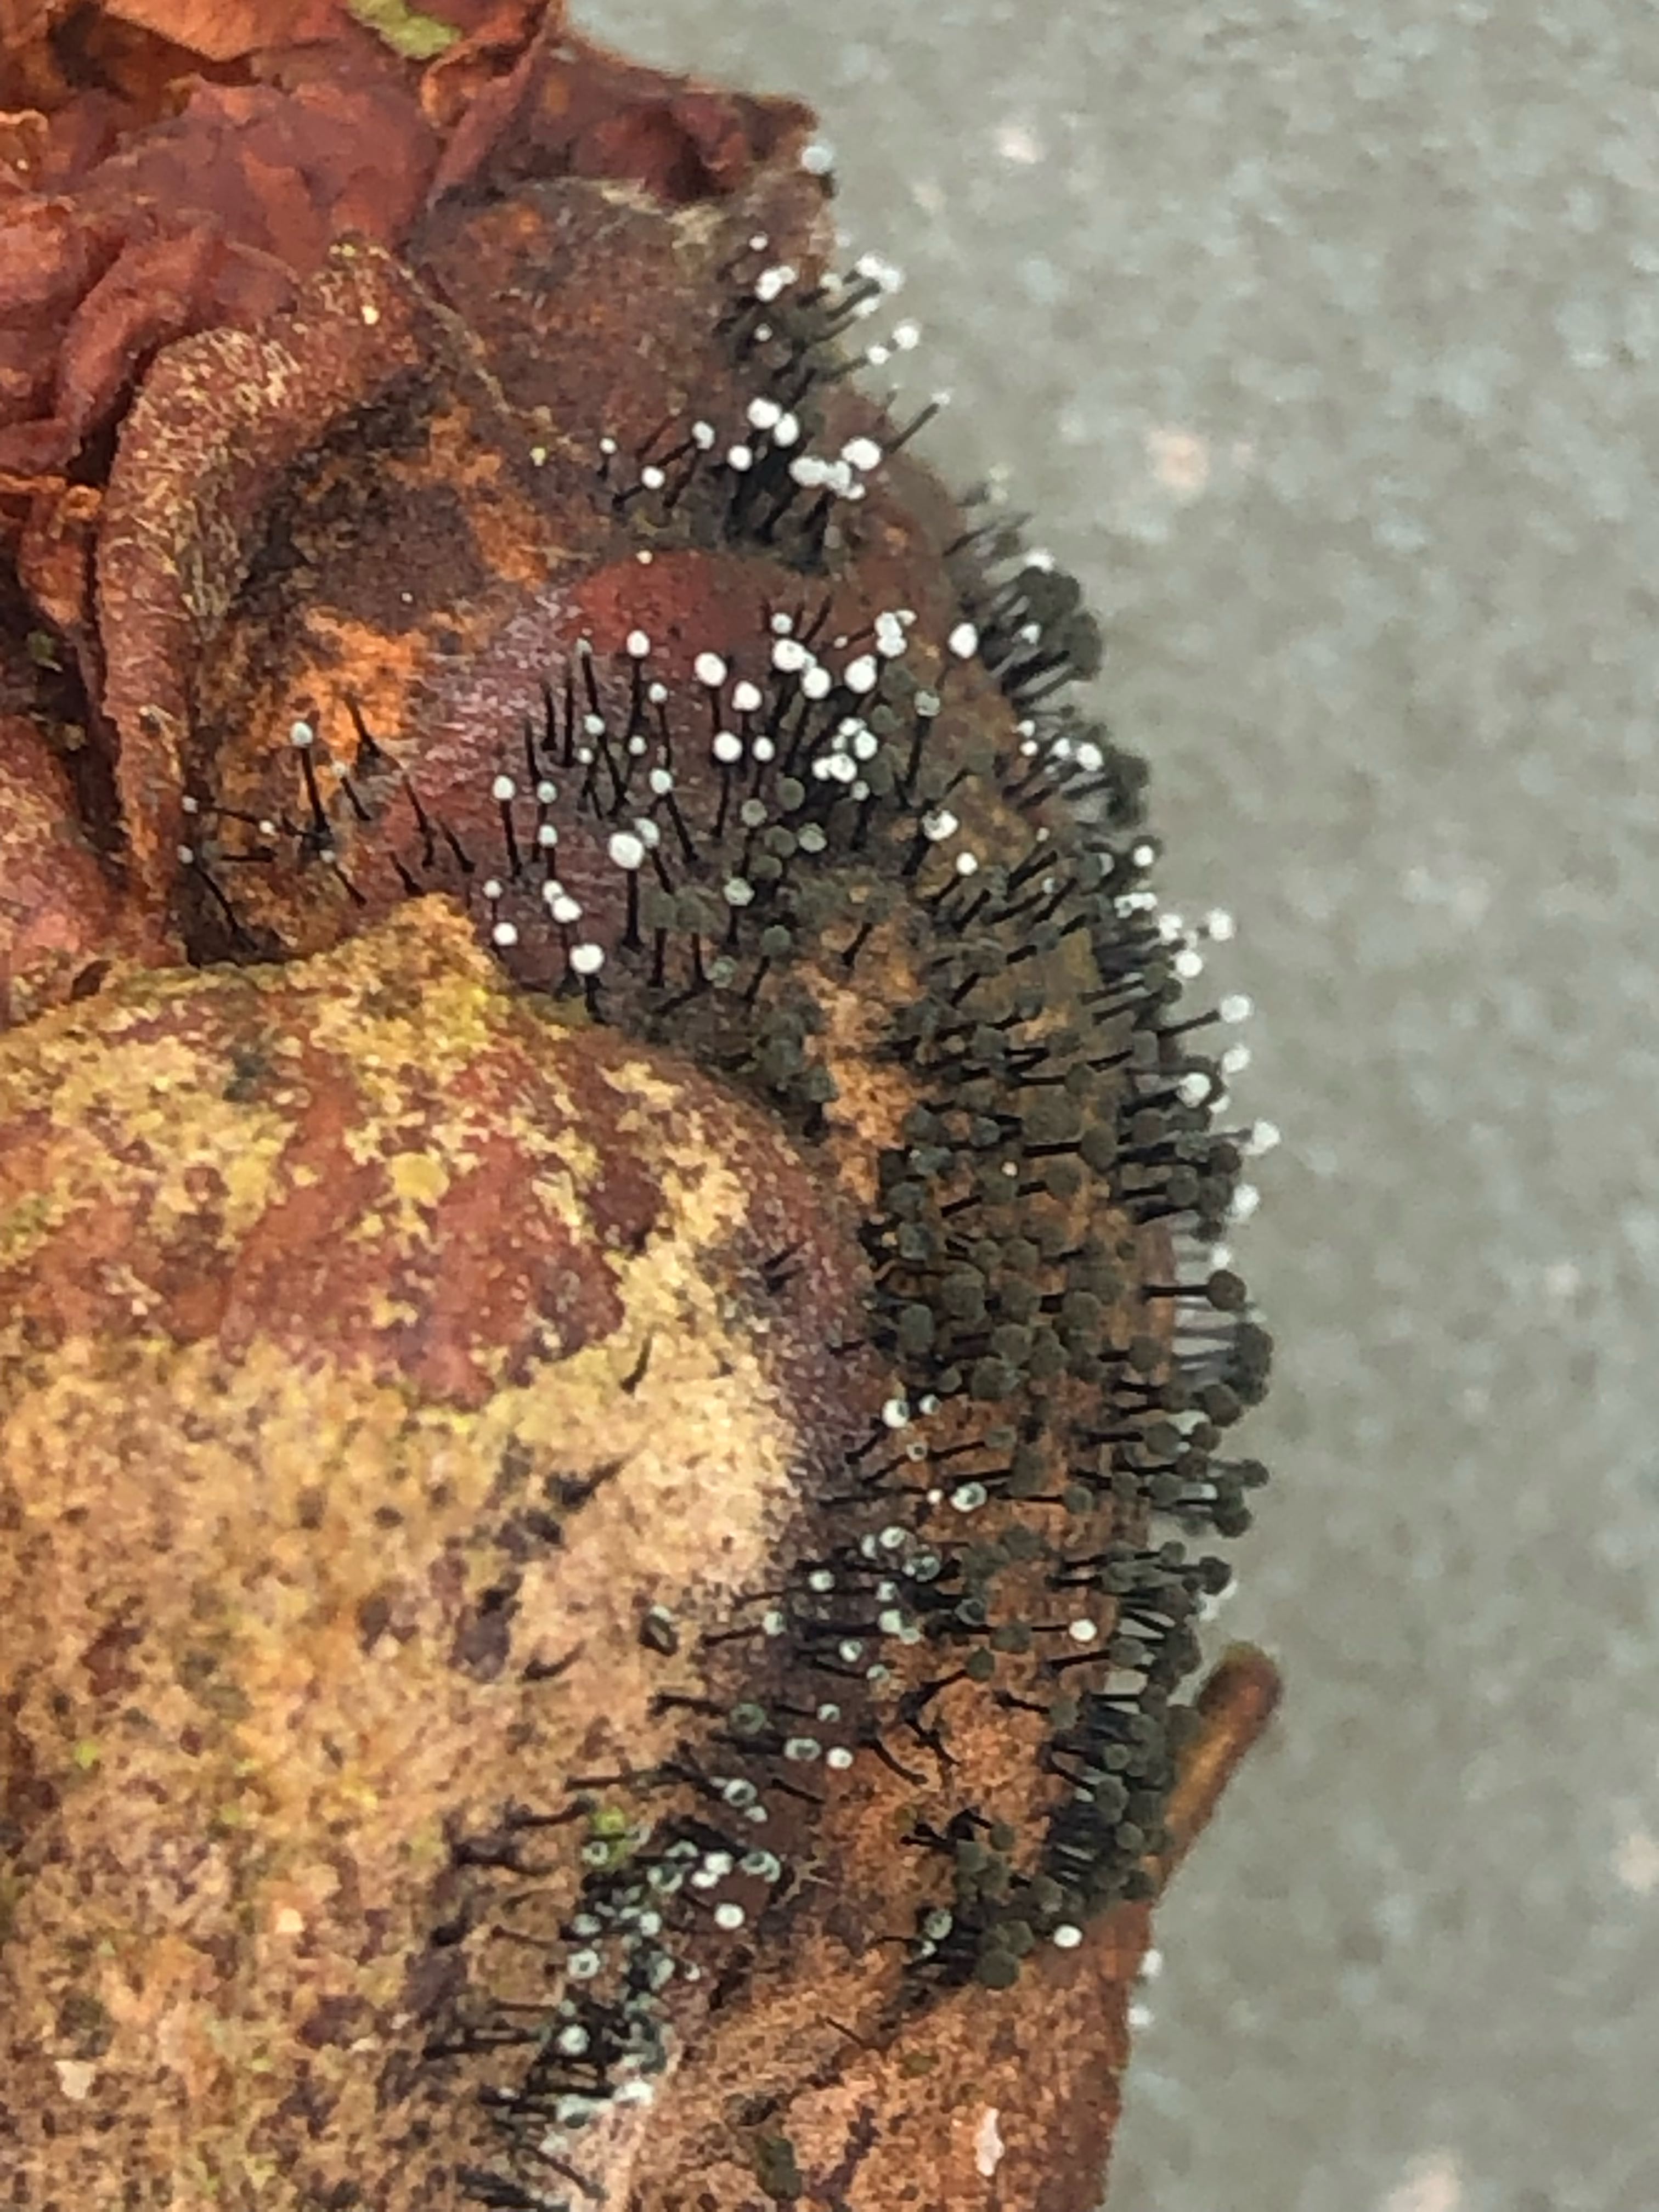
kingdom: Fungi
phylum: Ascomycota
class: Dothideomycetes
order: Pleosporales
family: Melanommataceae
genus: Seifertia
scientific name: Seifertia azaleae
